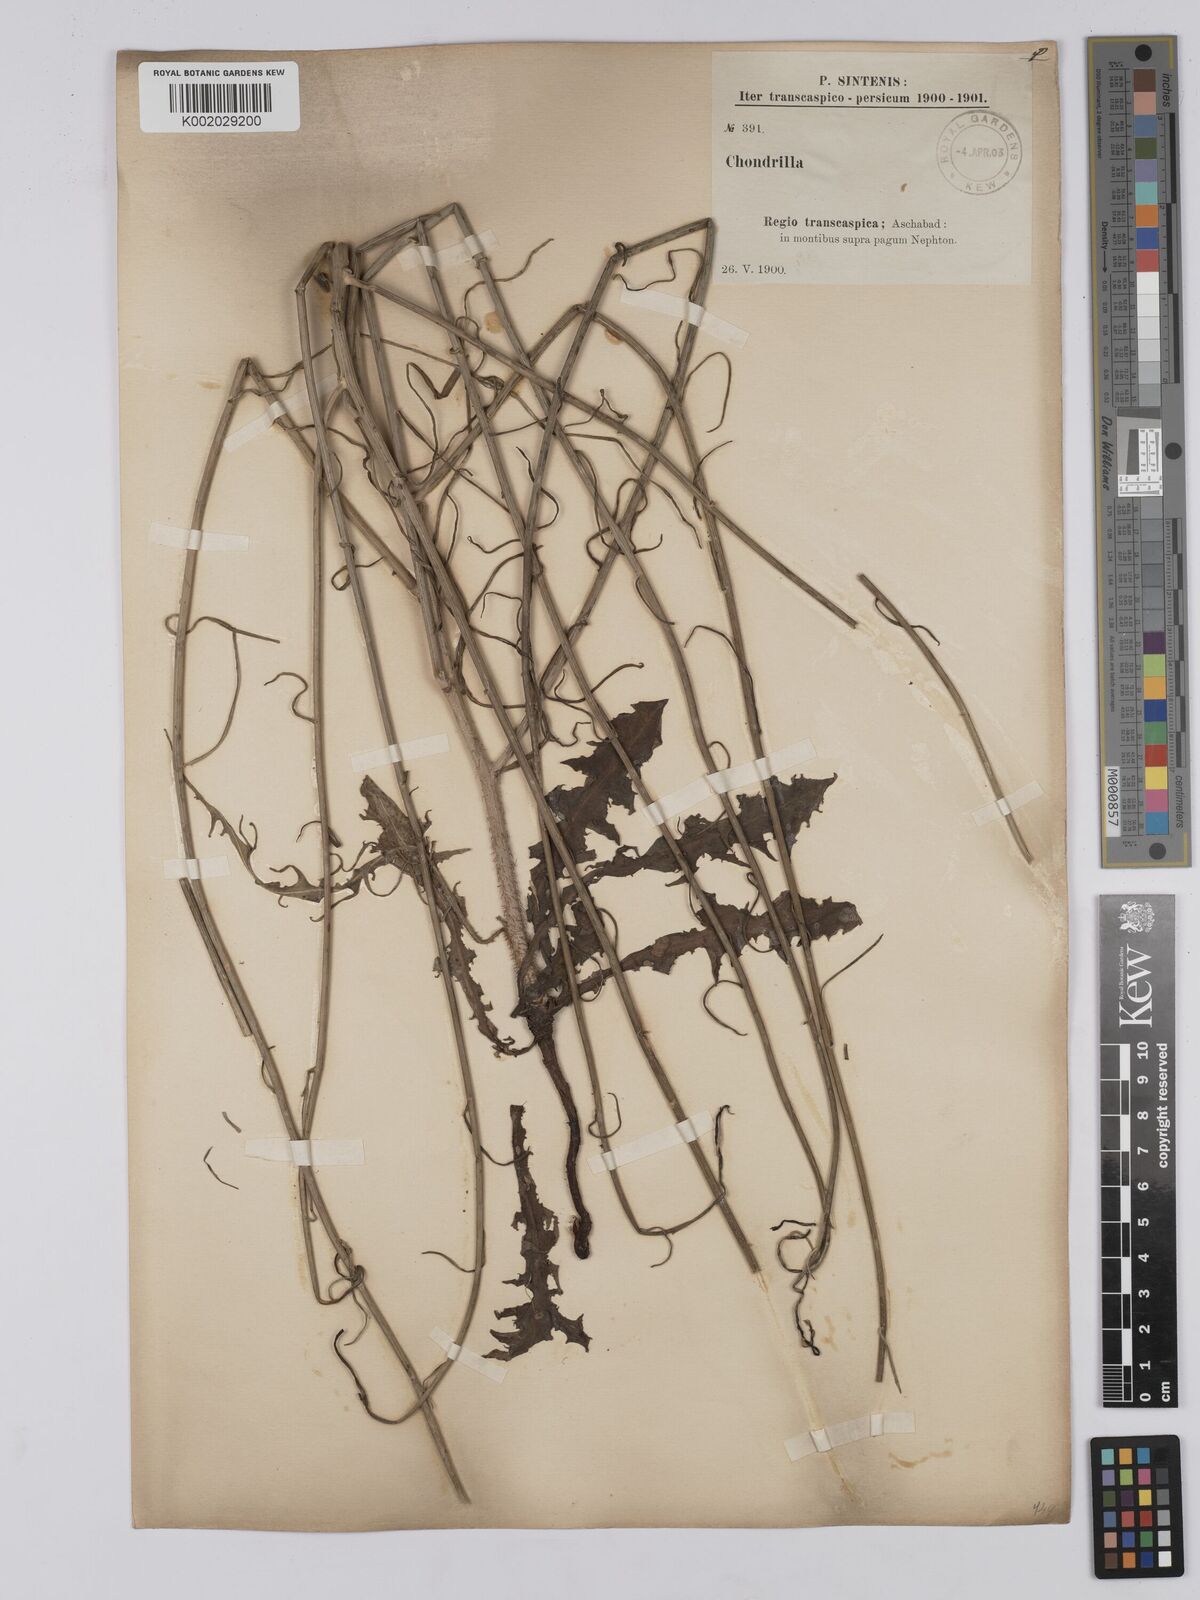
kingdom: Plantae
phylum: Tracheophyta
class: Magnoliopsida
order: Asterales
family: Asteraceae
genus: Chondrilla
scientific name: Chondrilla juncea
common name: Skeleton weed
